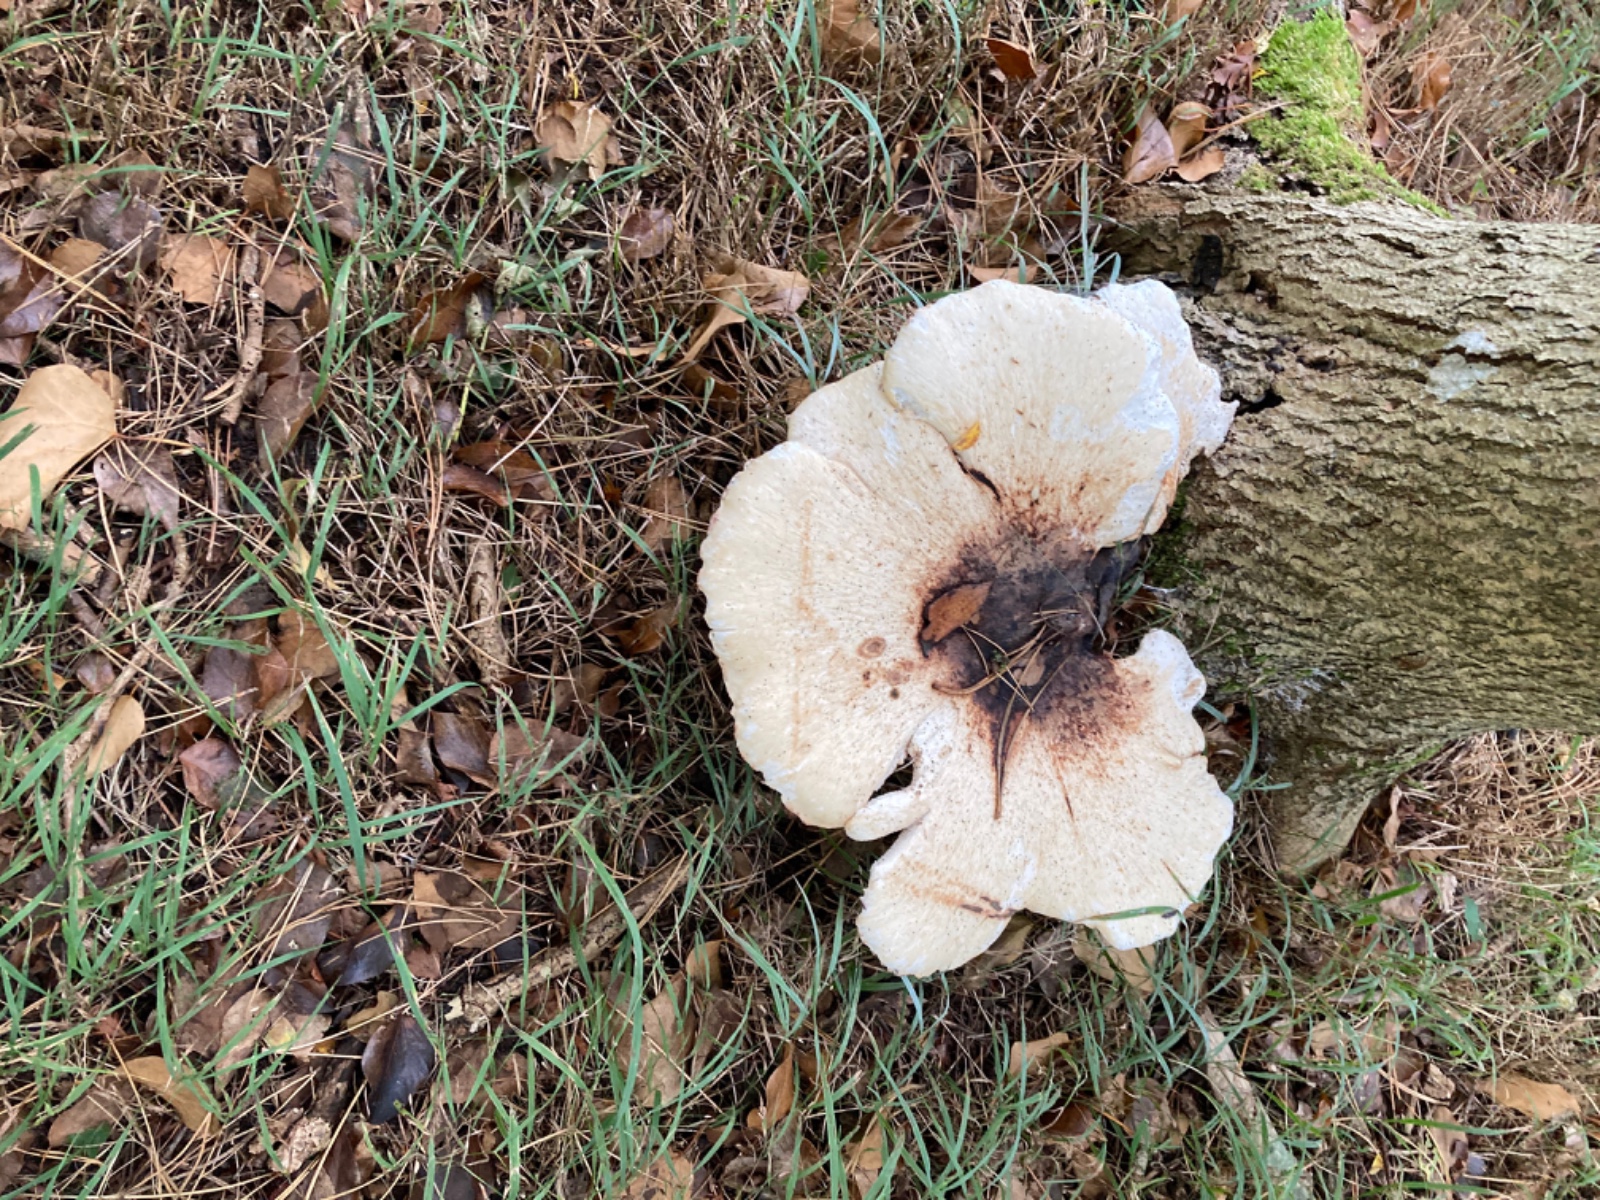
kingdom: Fungi
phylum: Basidiomycota
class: Agaricomycetes
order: Polyporales
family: Polyporaceae
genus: Cerioporus
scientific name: Cerioporus squamosus
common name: skællet stilkporesvamp
